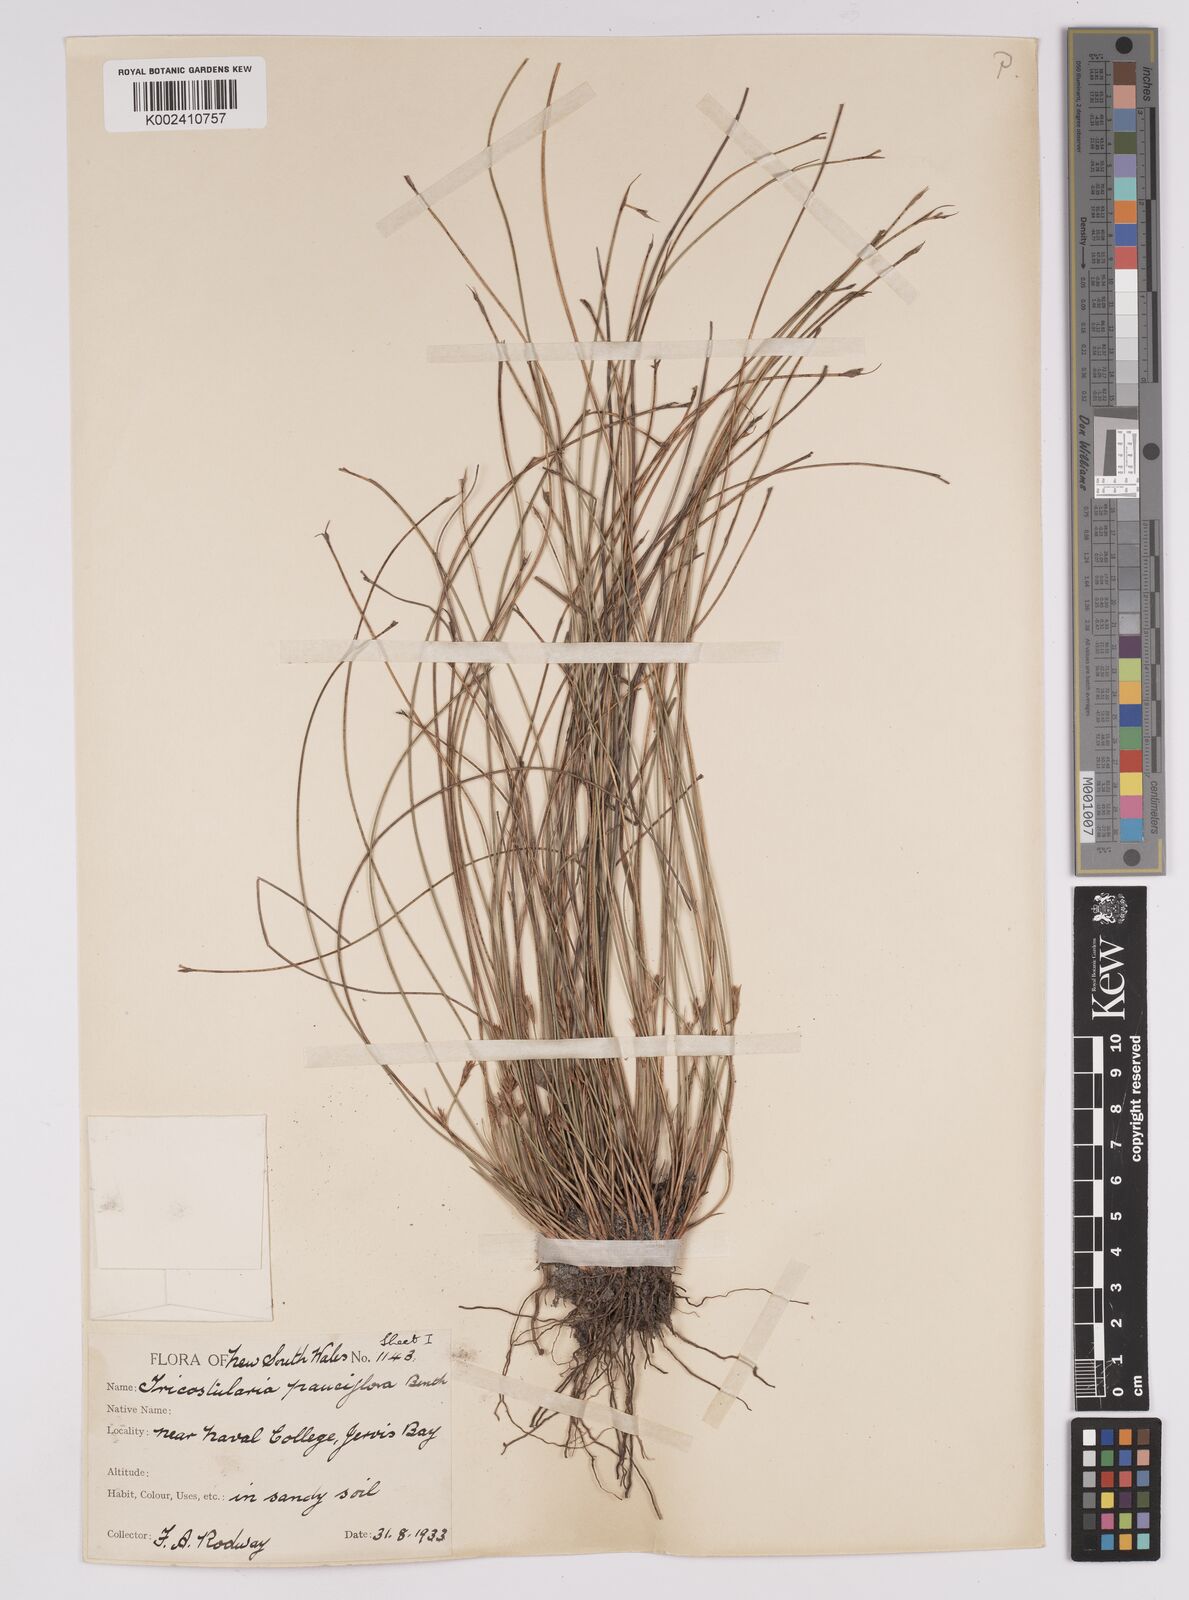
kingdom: Plantae
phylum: Tracheophyta
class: Liliopsida
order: Poales
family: Cyperaceae
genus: Tricostularia
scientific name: Tricostularia pauciflora
